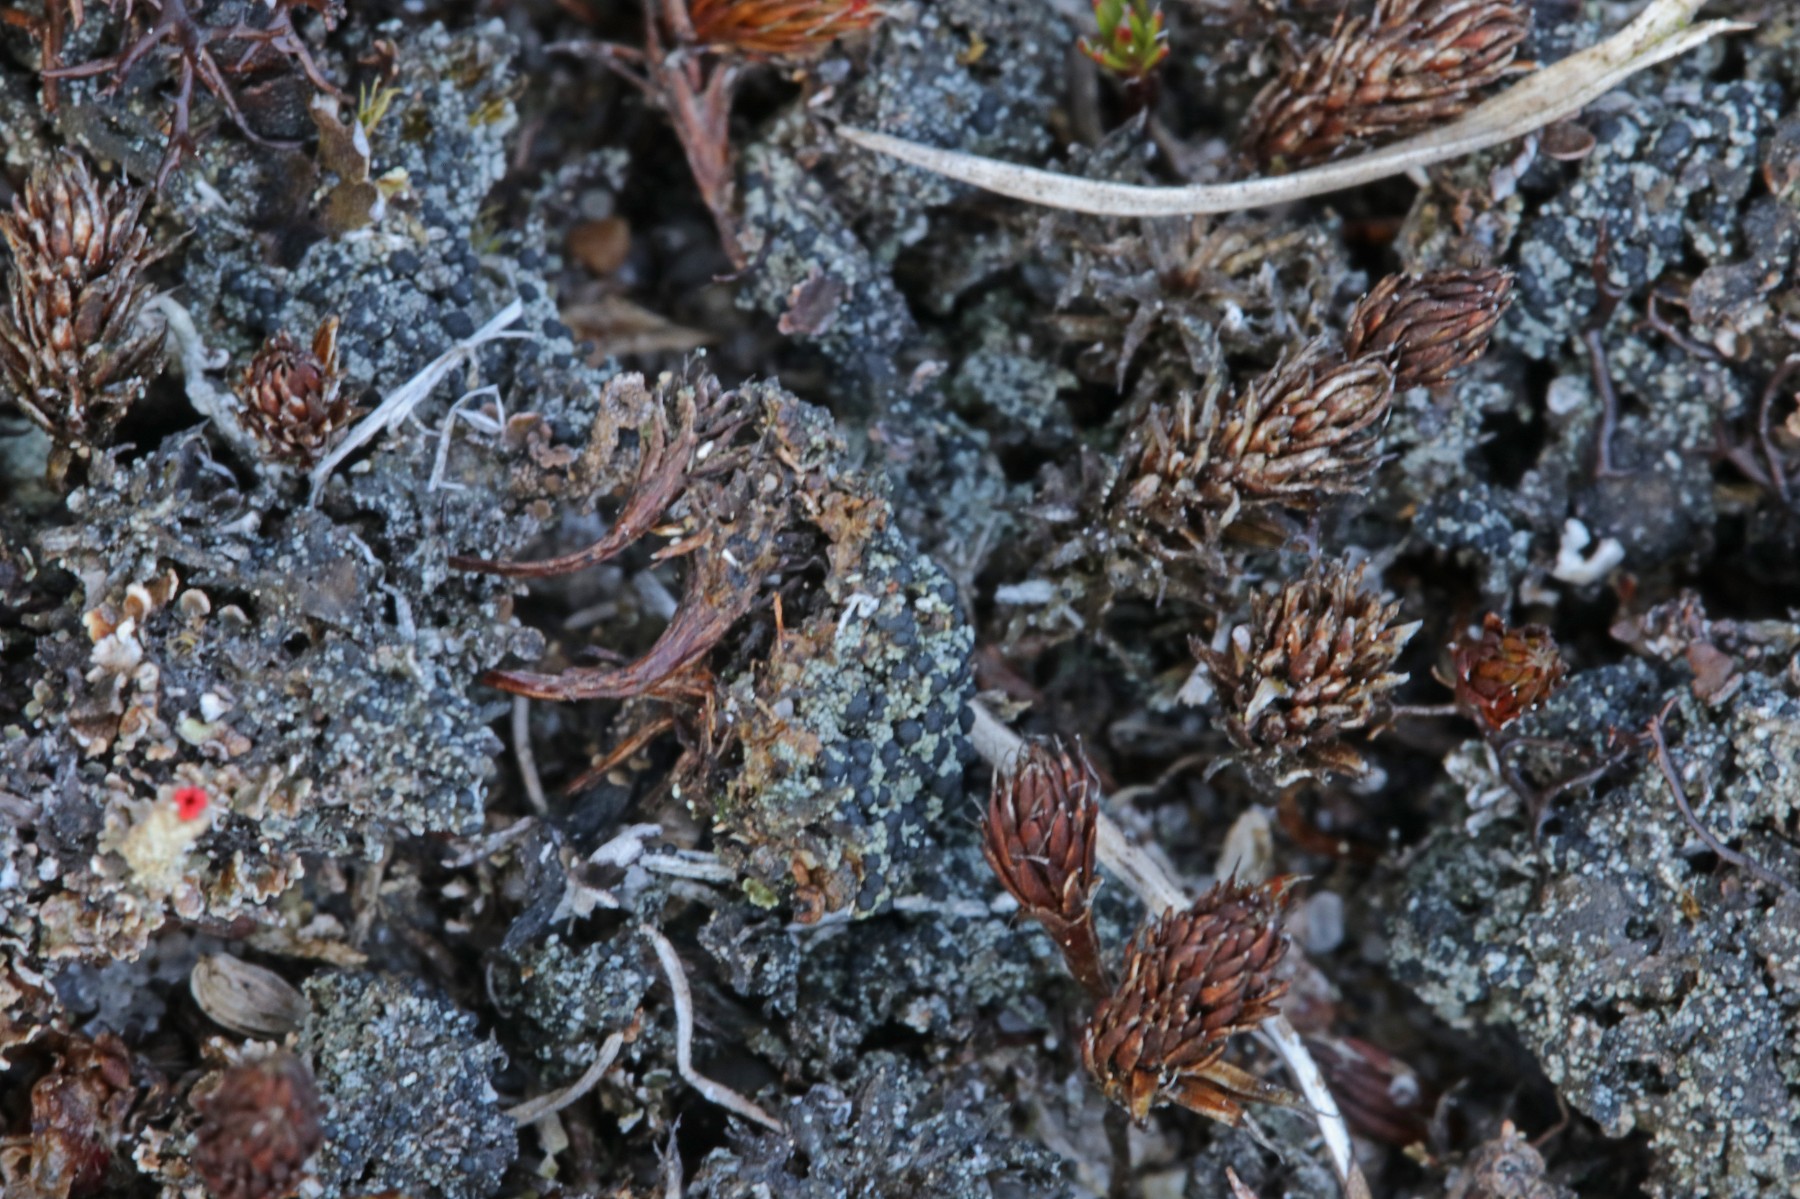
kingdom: Fungi
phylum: Ascomycota
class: Lecanoromycetes
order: Lecanorales
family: Byssolomataceae
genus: Micarea
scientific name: Micarea lignaria
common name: tørve-knaplav
